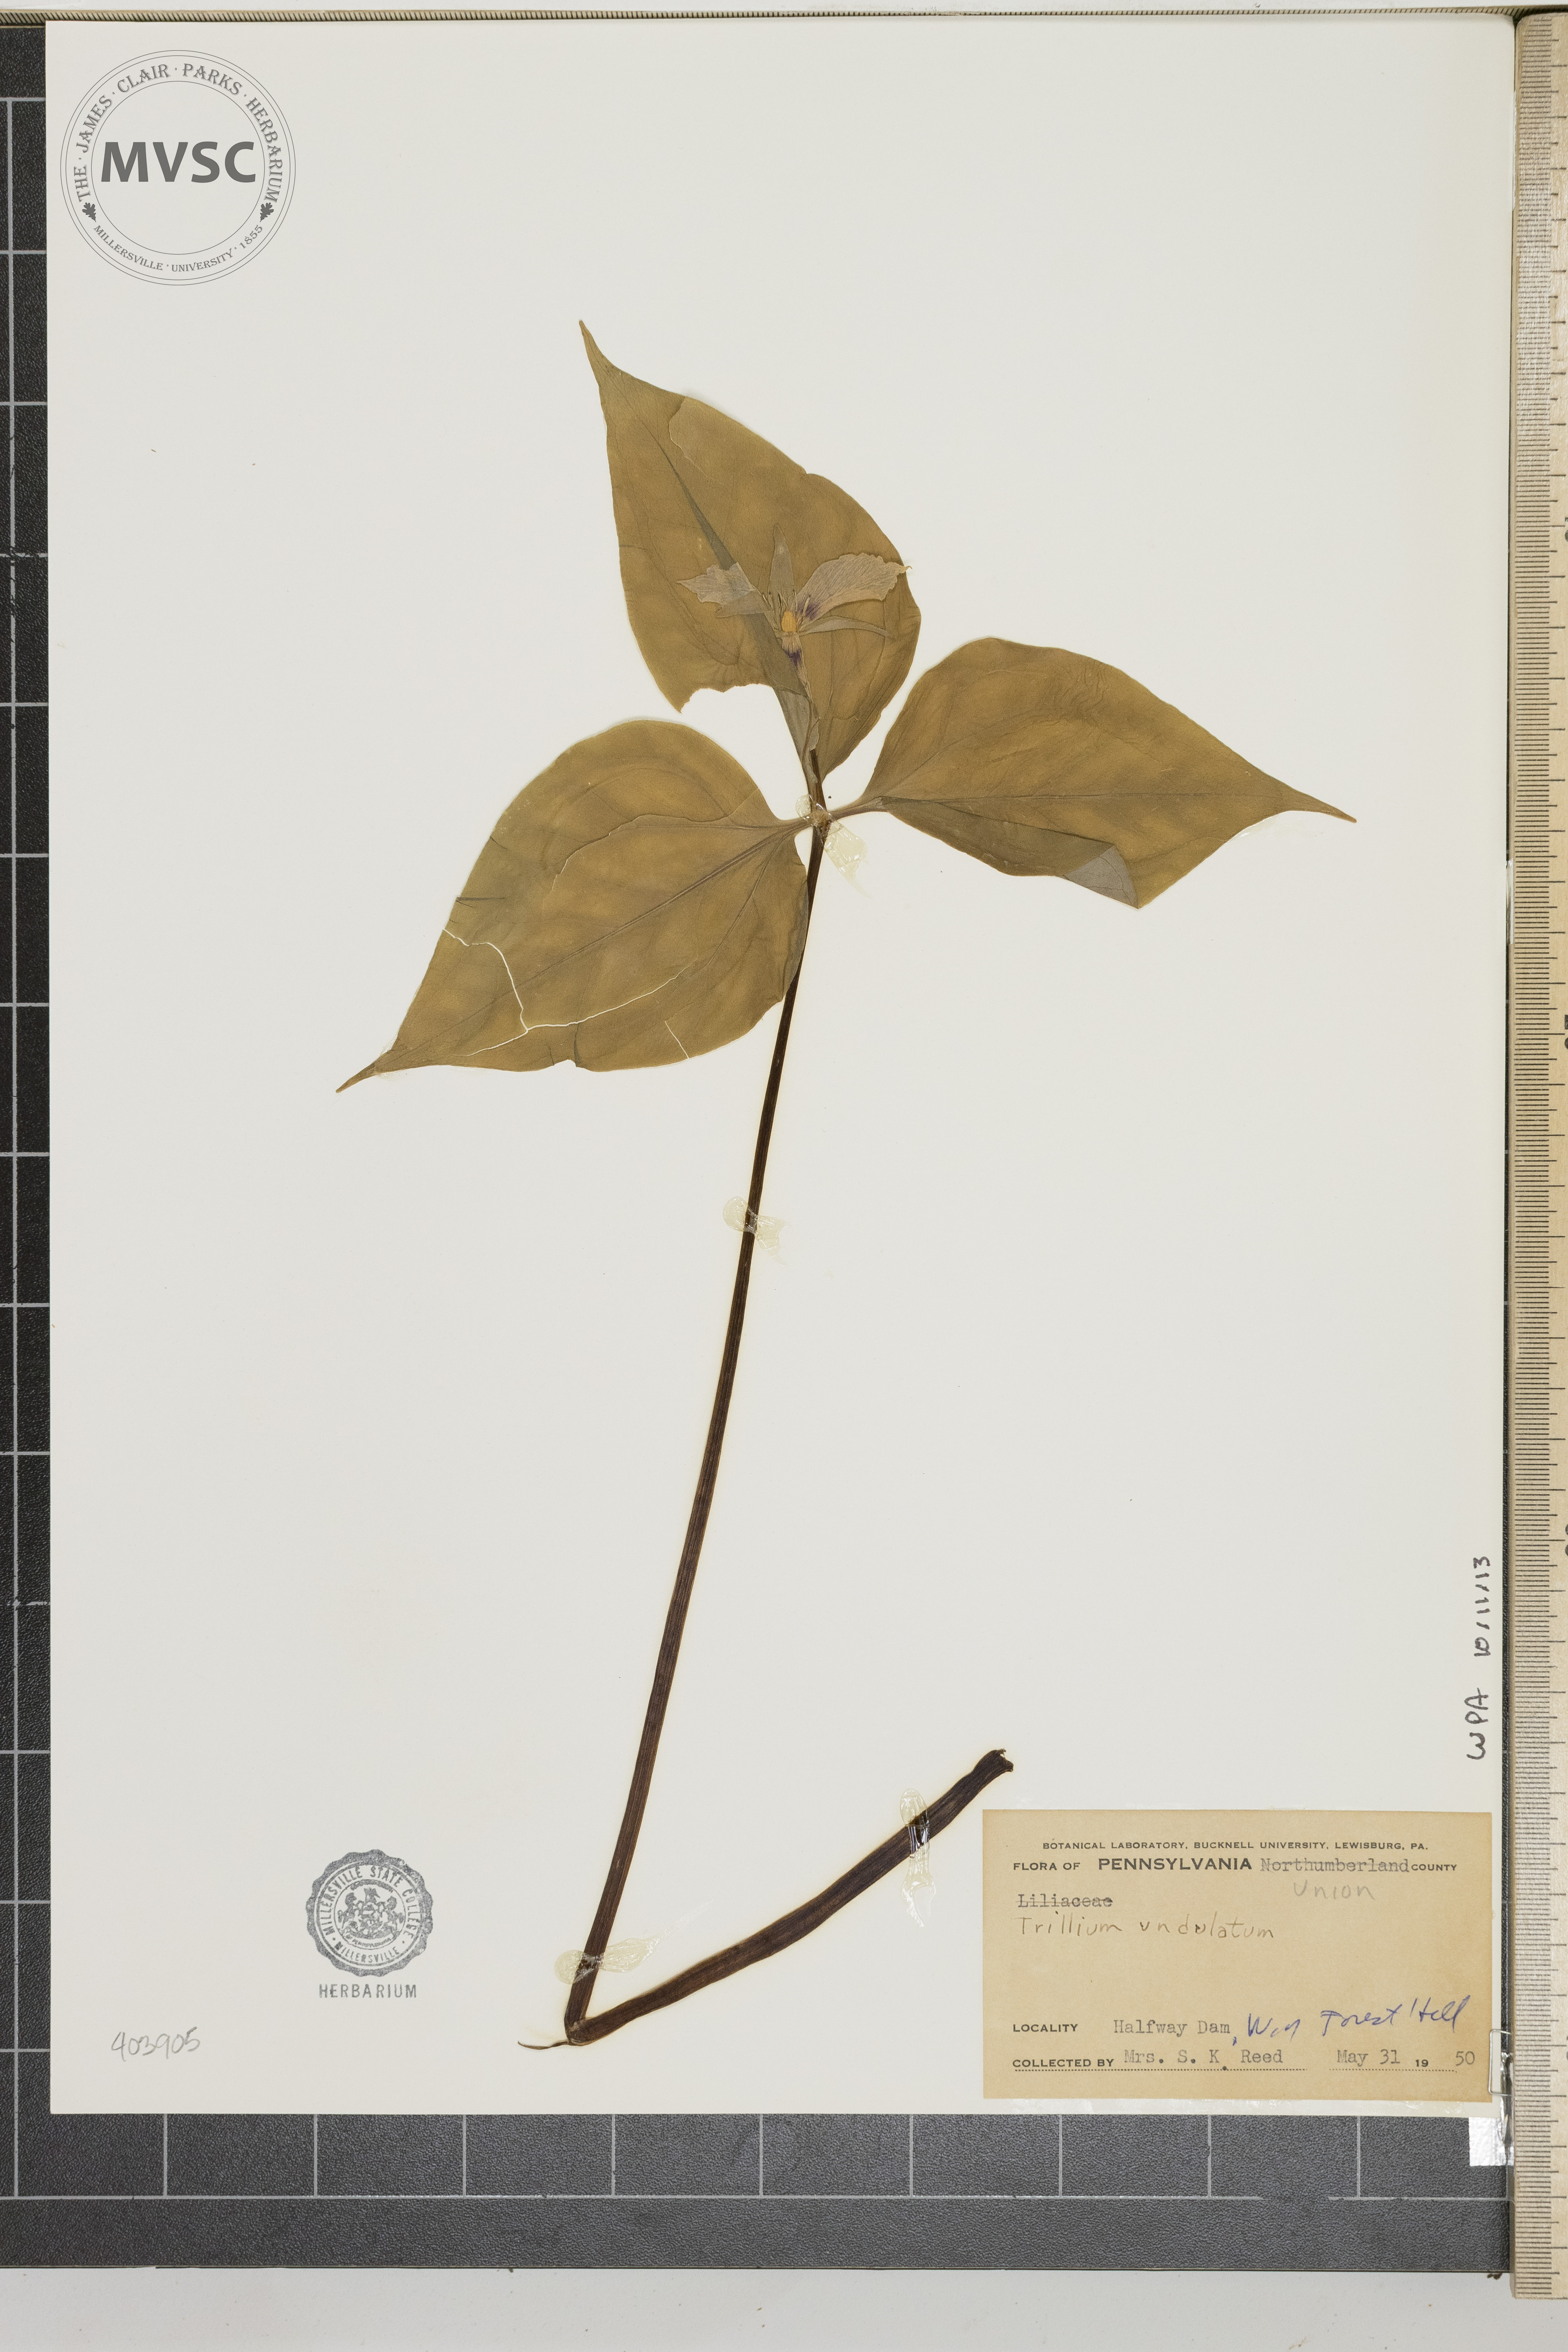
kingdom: Plantae
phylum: Tracheophyta
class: Liliopsida
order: Liliales
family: Melanthiaceae
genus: Trillium
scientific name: Trillium undulatum
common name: Paint trillium
